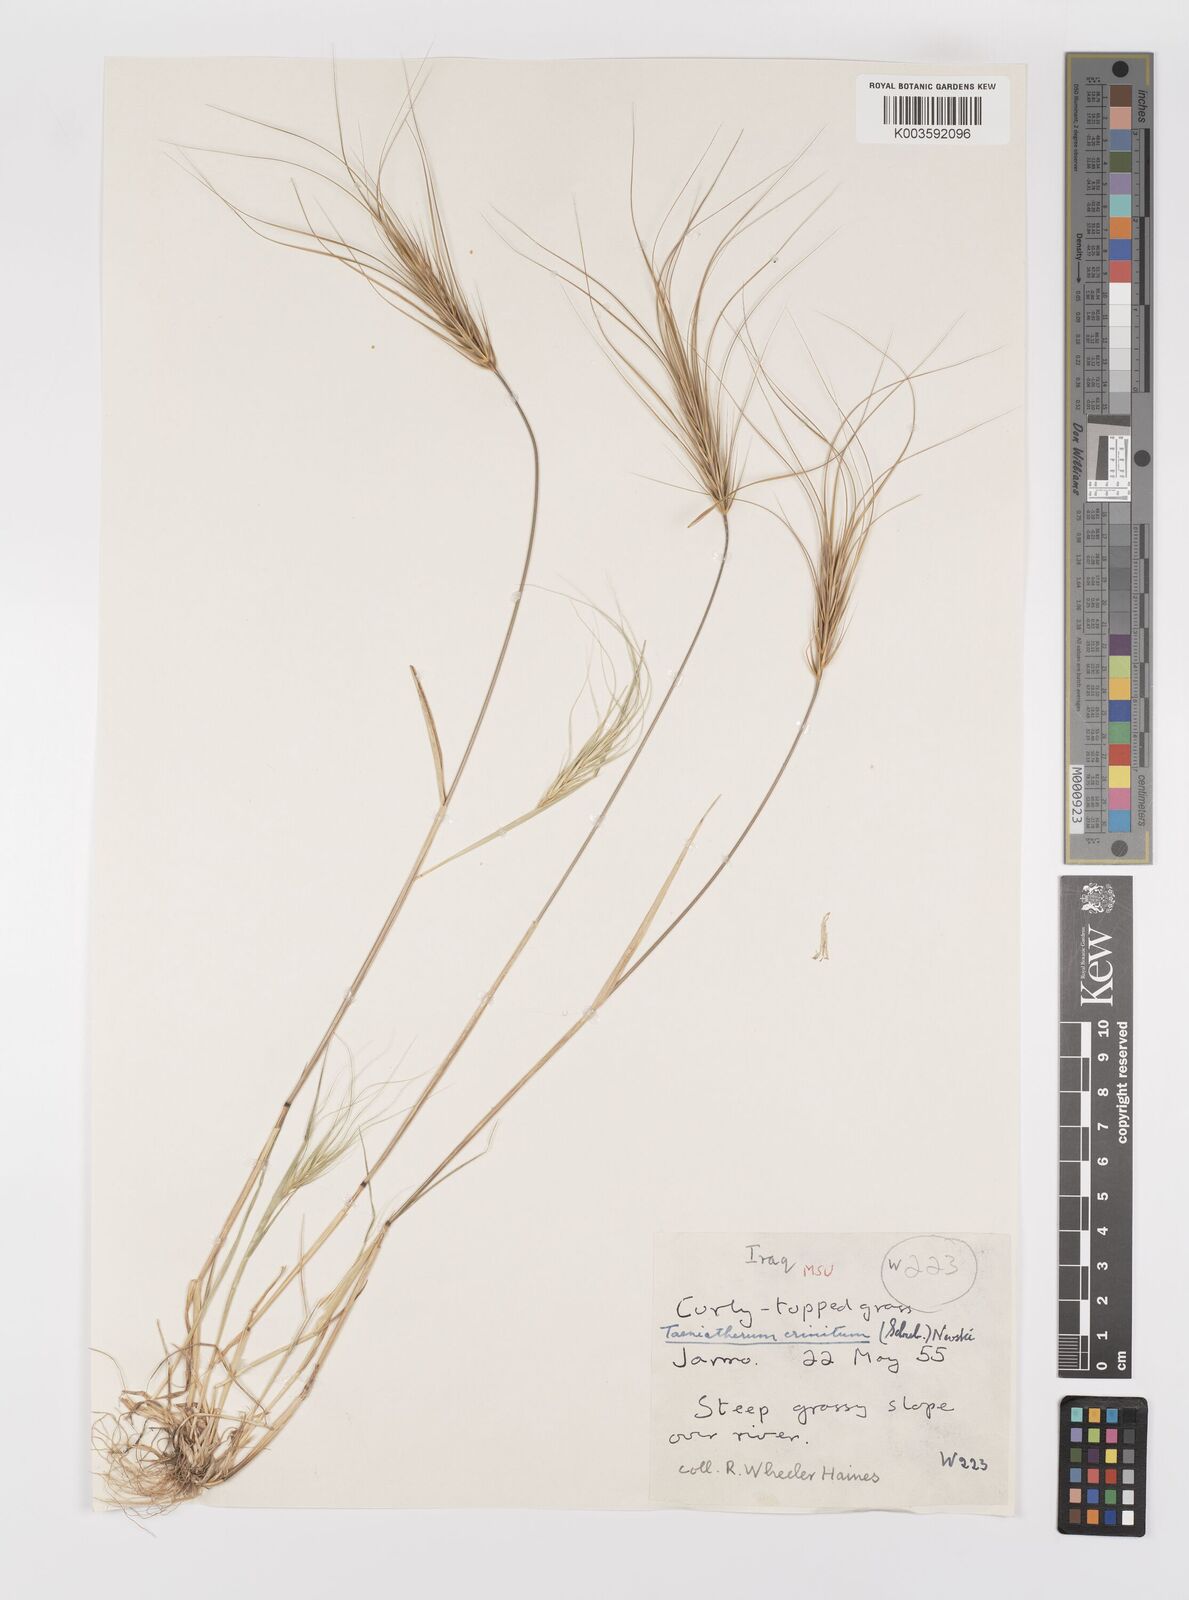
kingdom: Plantae
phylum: Tracheophyta
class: Liliopsida
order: Poales
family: Poaceae
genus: Taeniatherum
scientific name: Taeniatherum caput-medusae
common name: Medusahead
